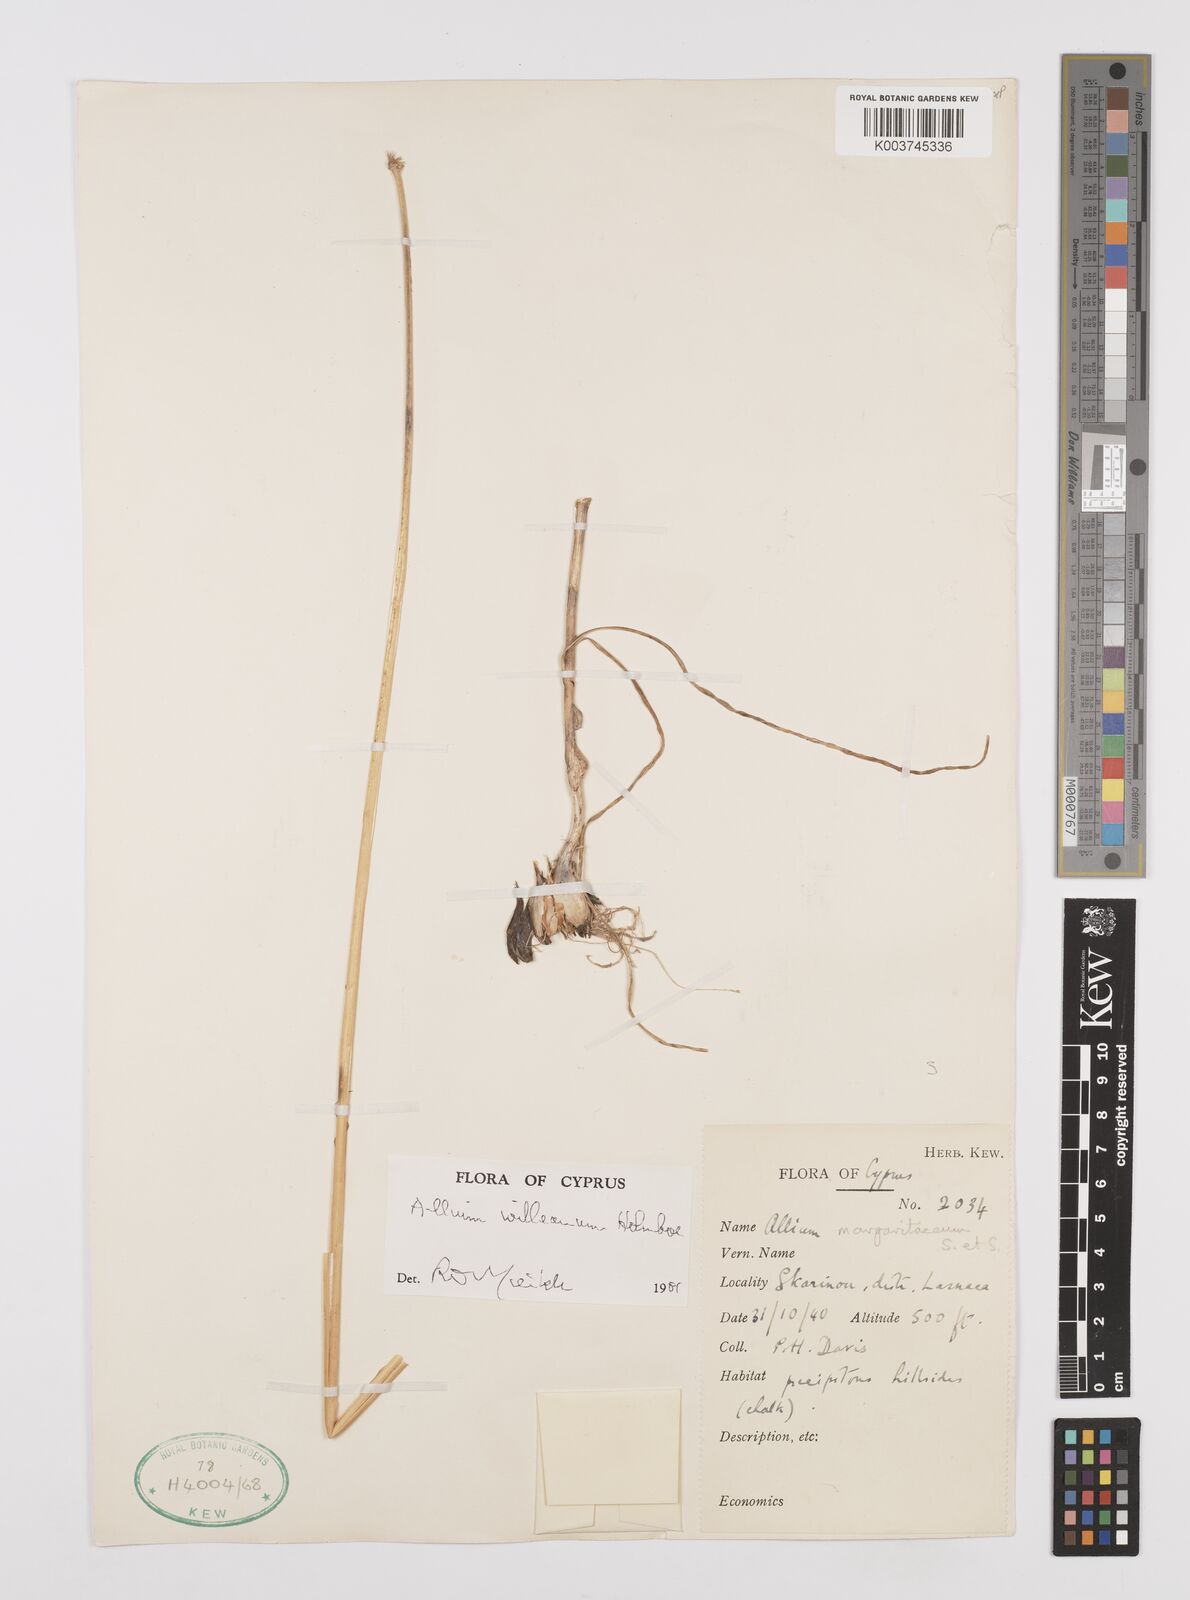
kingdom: Plantae
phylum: Tracheophyta
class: Liliopsida
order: Asparagales
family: Amaryllidaceae
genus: Allium
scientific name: Allium willeanum
